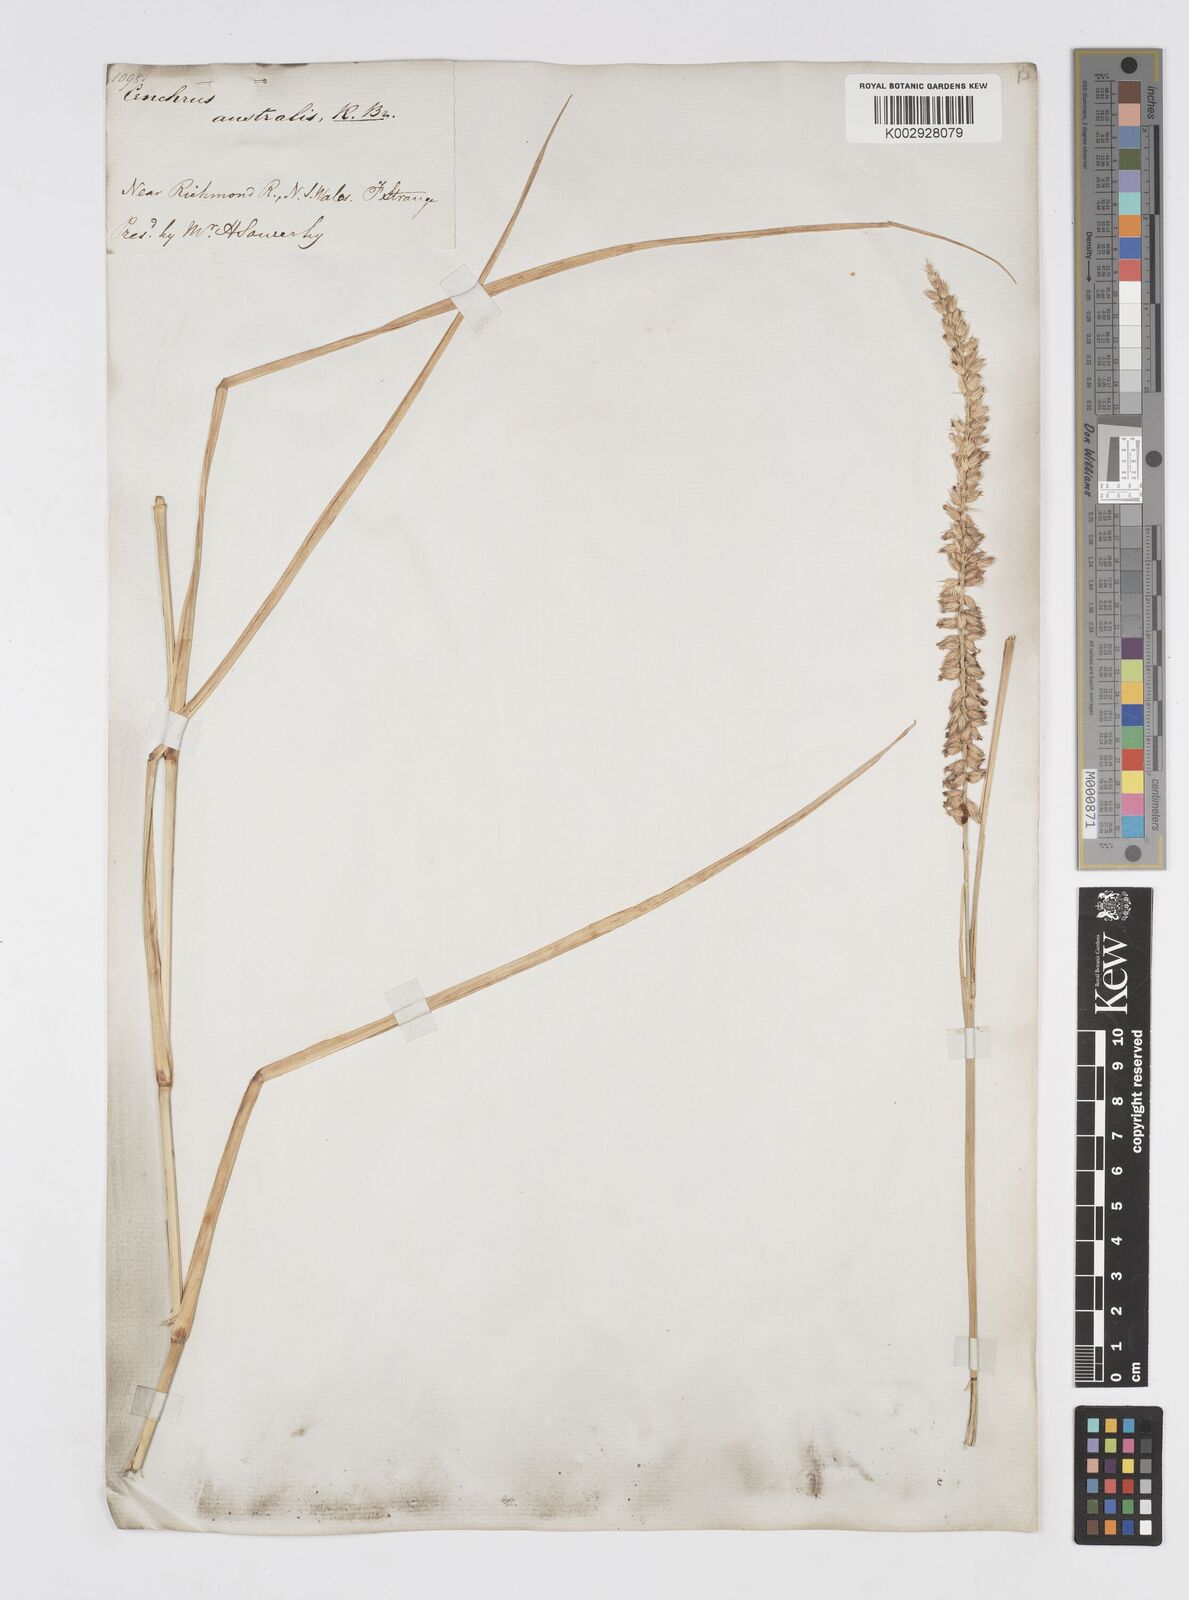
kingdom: Plantae
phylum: Tracheophyta
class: Liliopsida
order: Poales
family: Poaceae
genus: Cenchrus
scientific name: Cenchrus caliculatus
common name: Large bur grass
